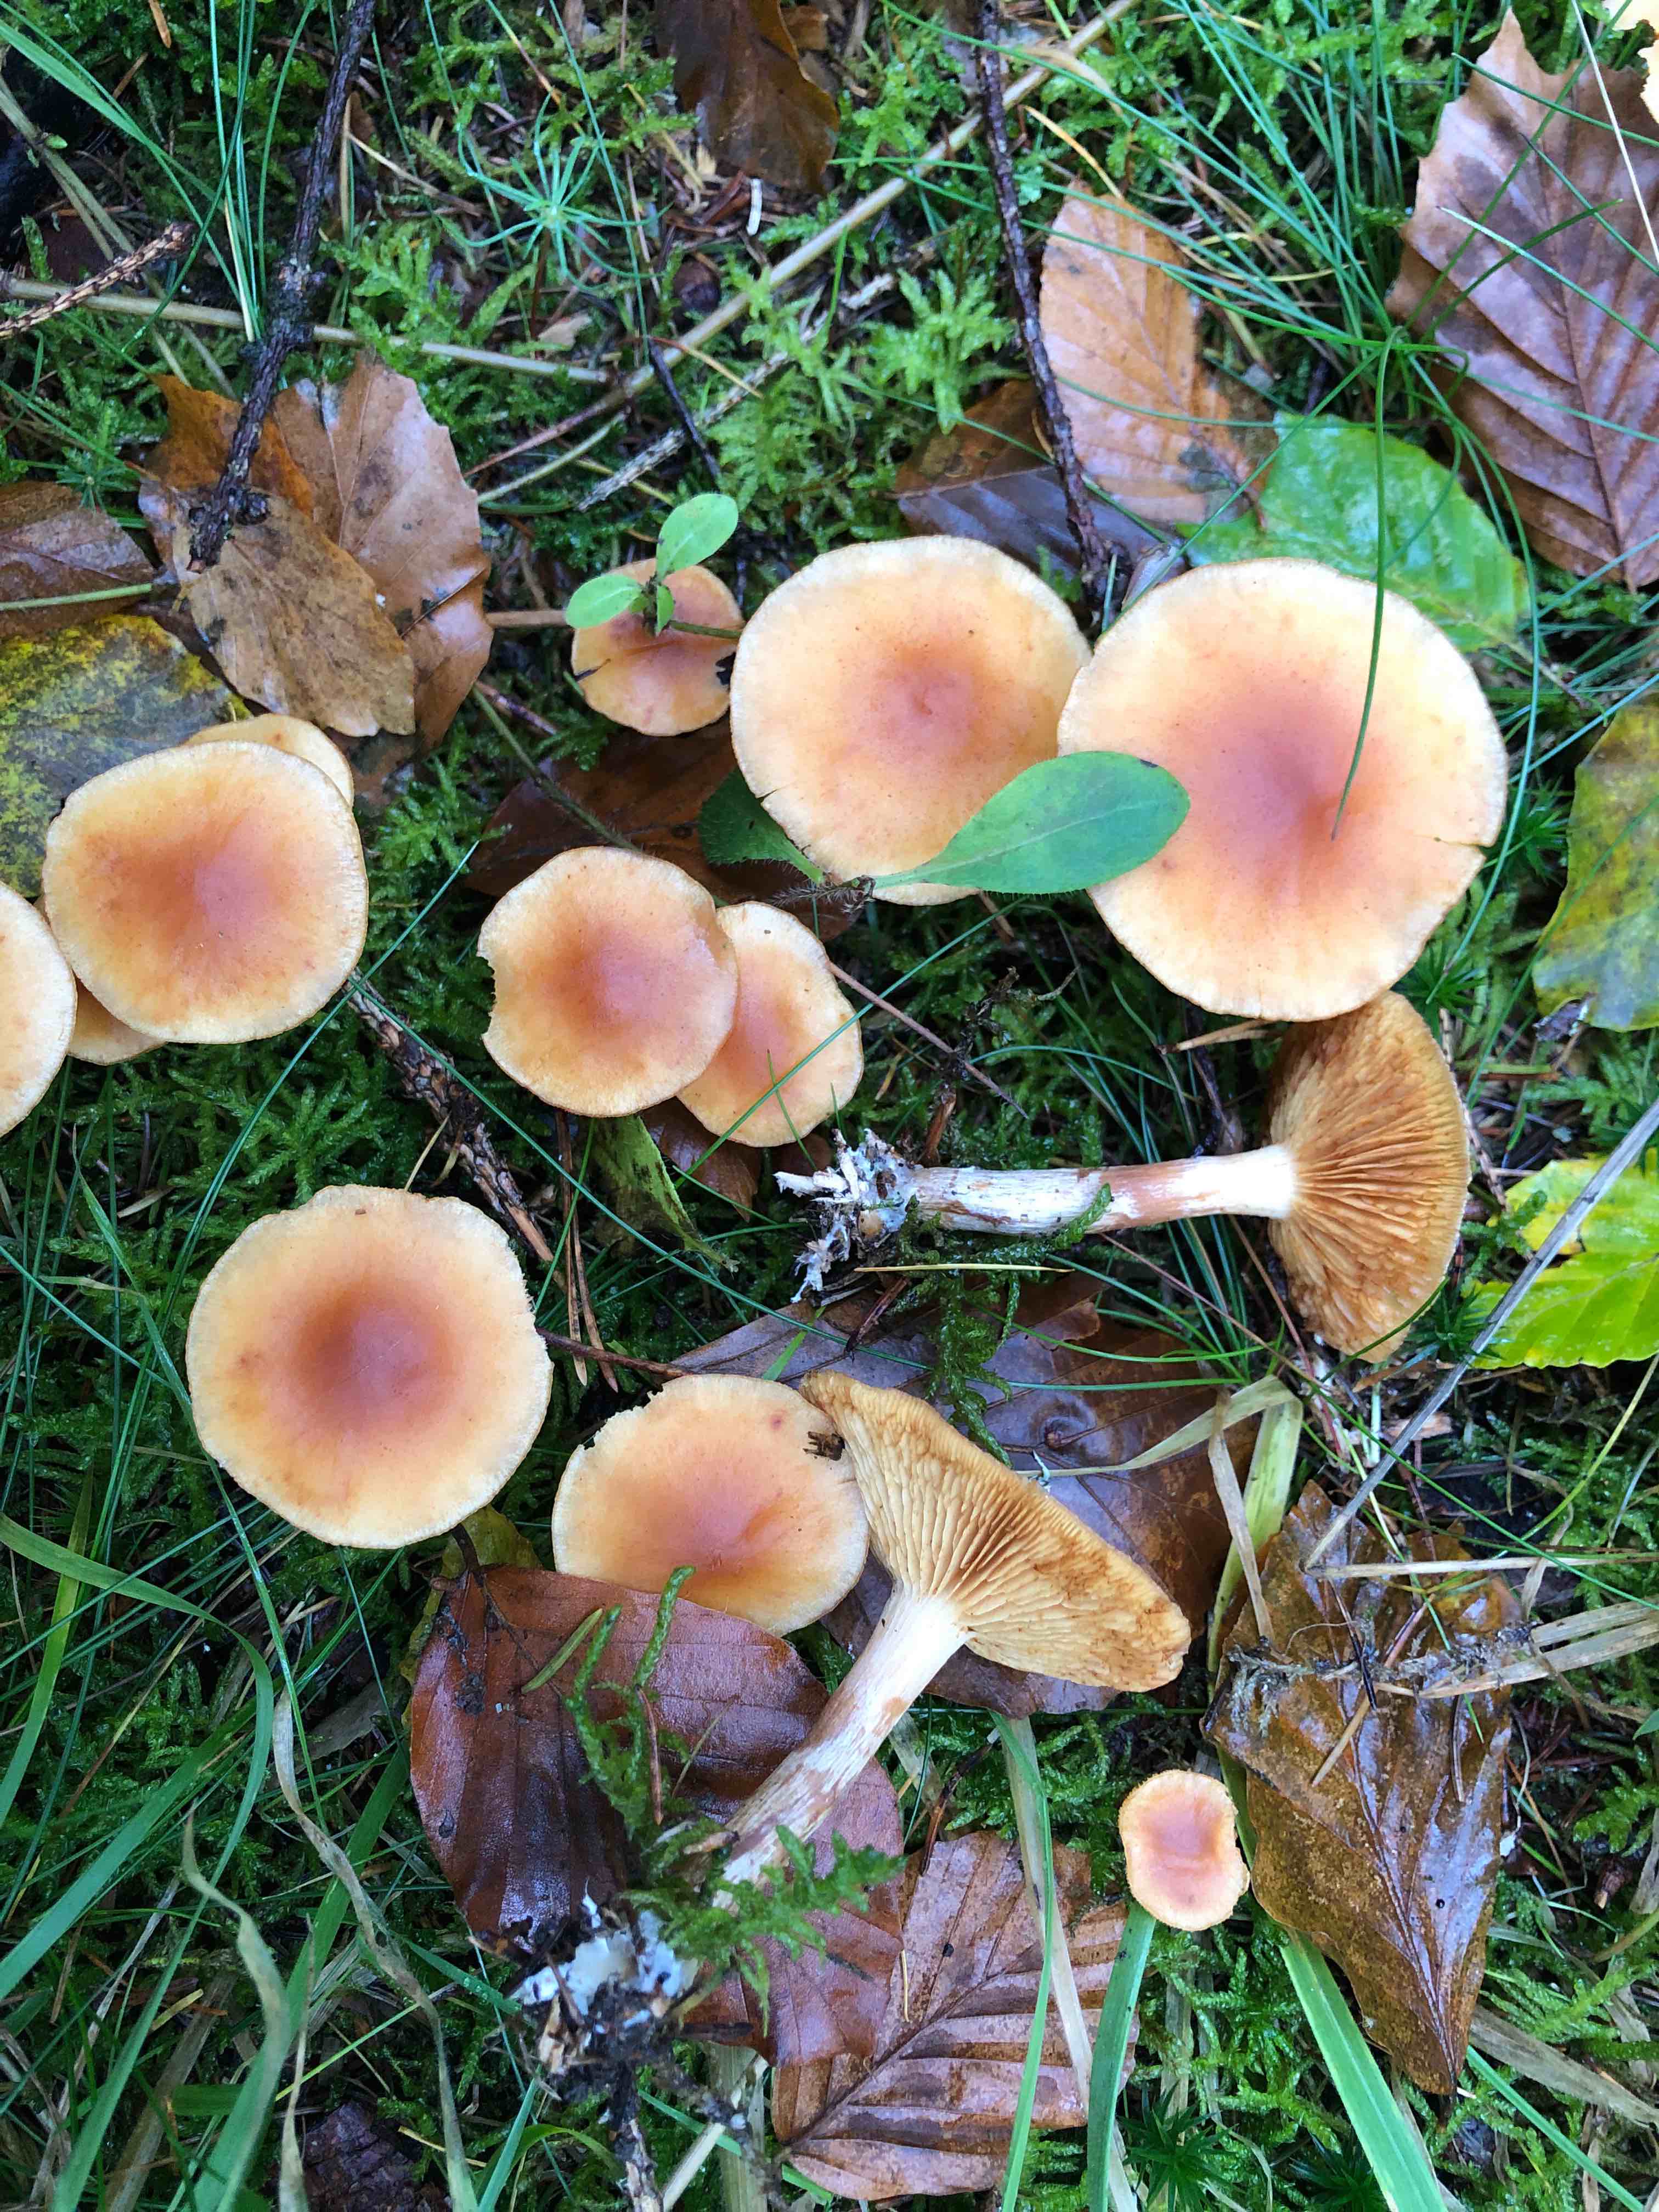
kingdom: Fungi
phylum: Basidiomycota
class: Agaricomycetes
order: Agaricales
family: Hymenogastraceae
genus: Gymnopilus
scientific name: Gymnopilus penetrans
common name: plettet flammehat
